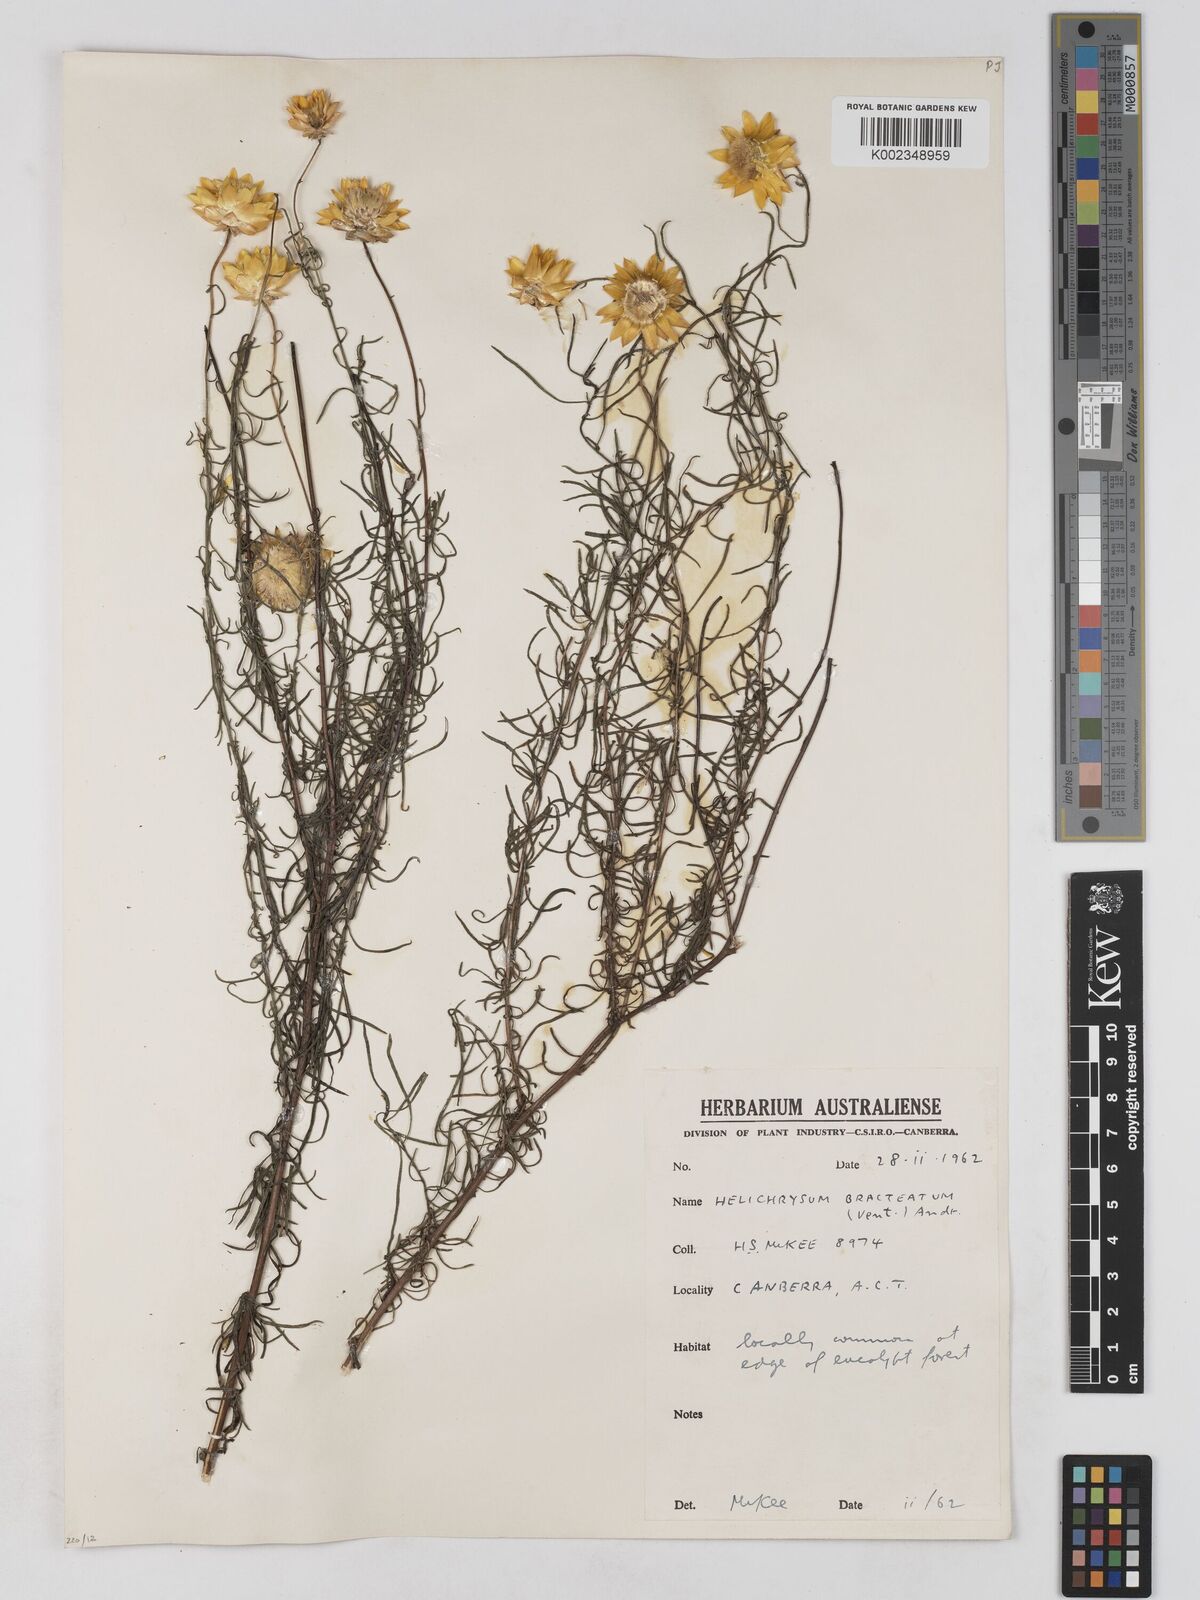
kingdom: Plantae
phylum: Tracheophyta
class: Magnoliopsida
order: Asterales
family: Asteraceae
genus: Xerochrysum
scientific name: Xerochrysum bracteatum
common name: Bracted strawflower
